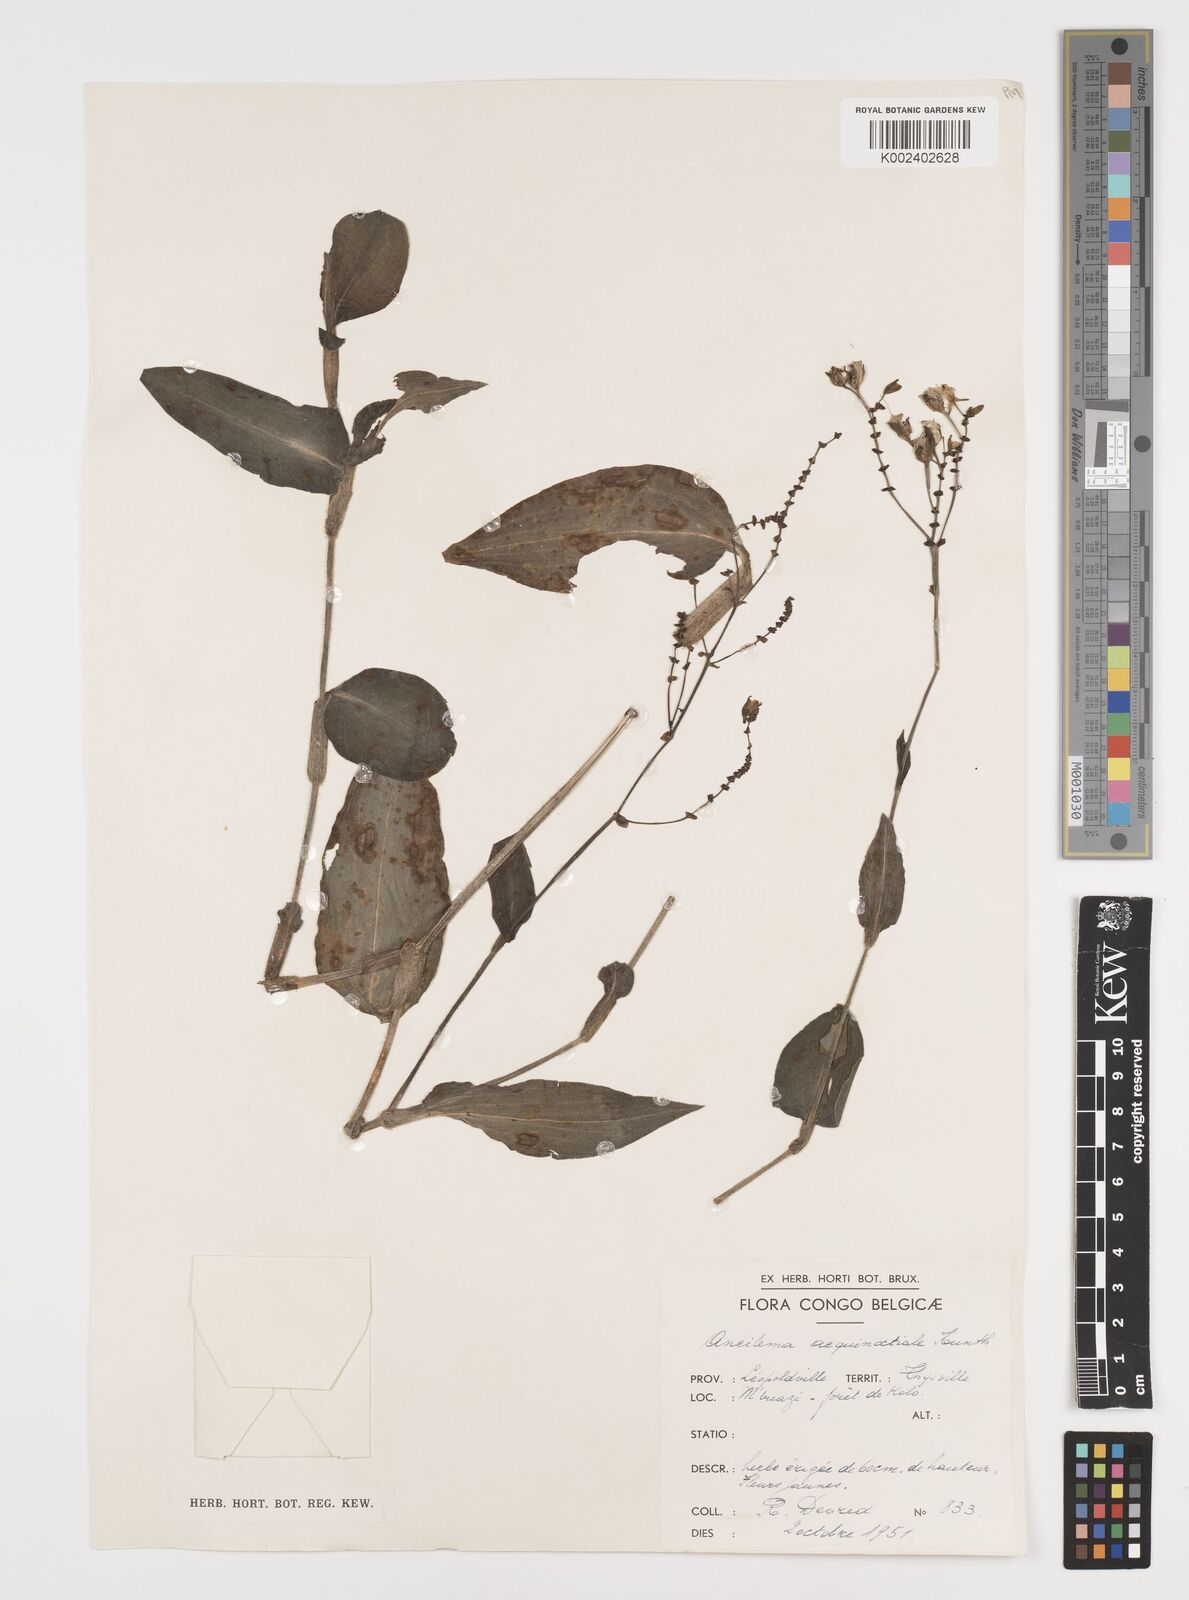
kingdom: Plantae
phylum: Tracheophyta
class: Liliopsida
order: Commelinales
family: Commelinaceae
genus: Aneilema
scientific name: Aneilema aequinoctiale
